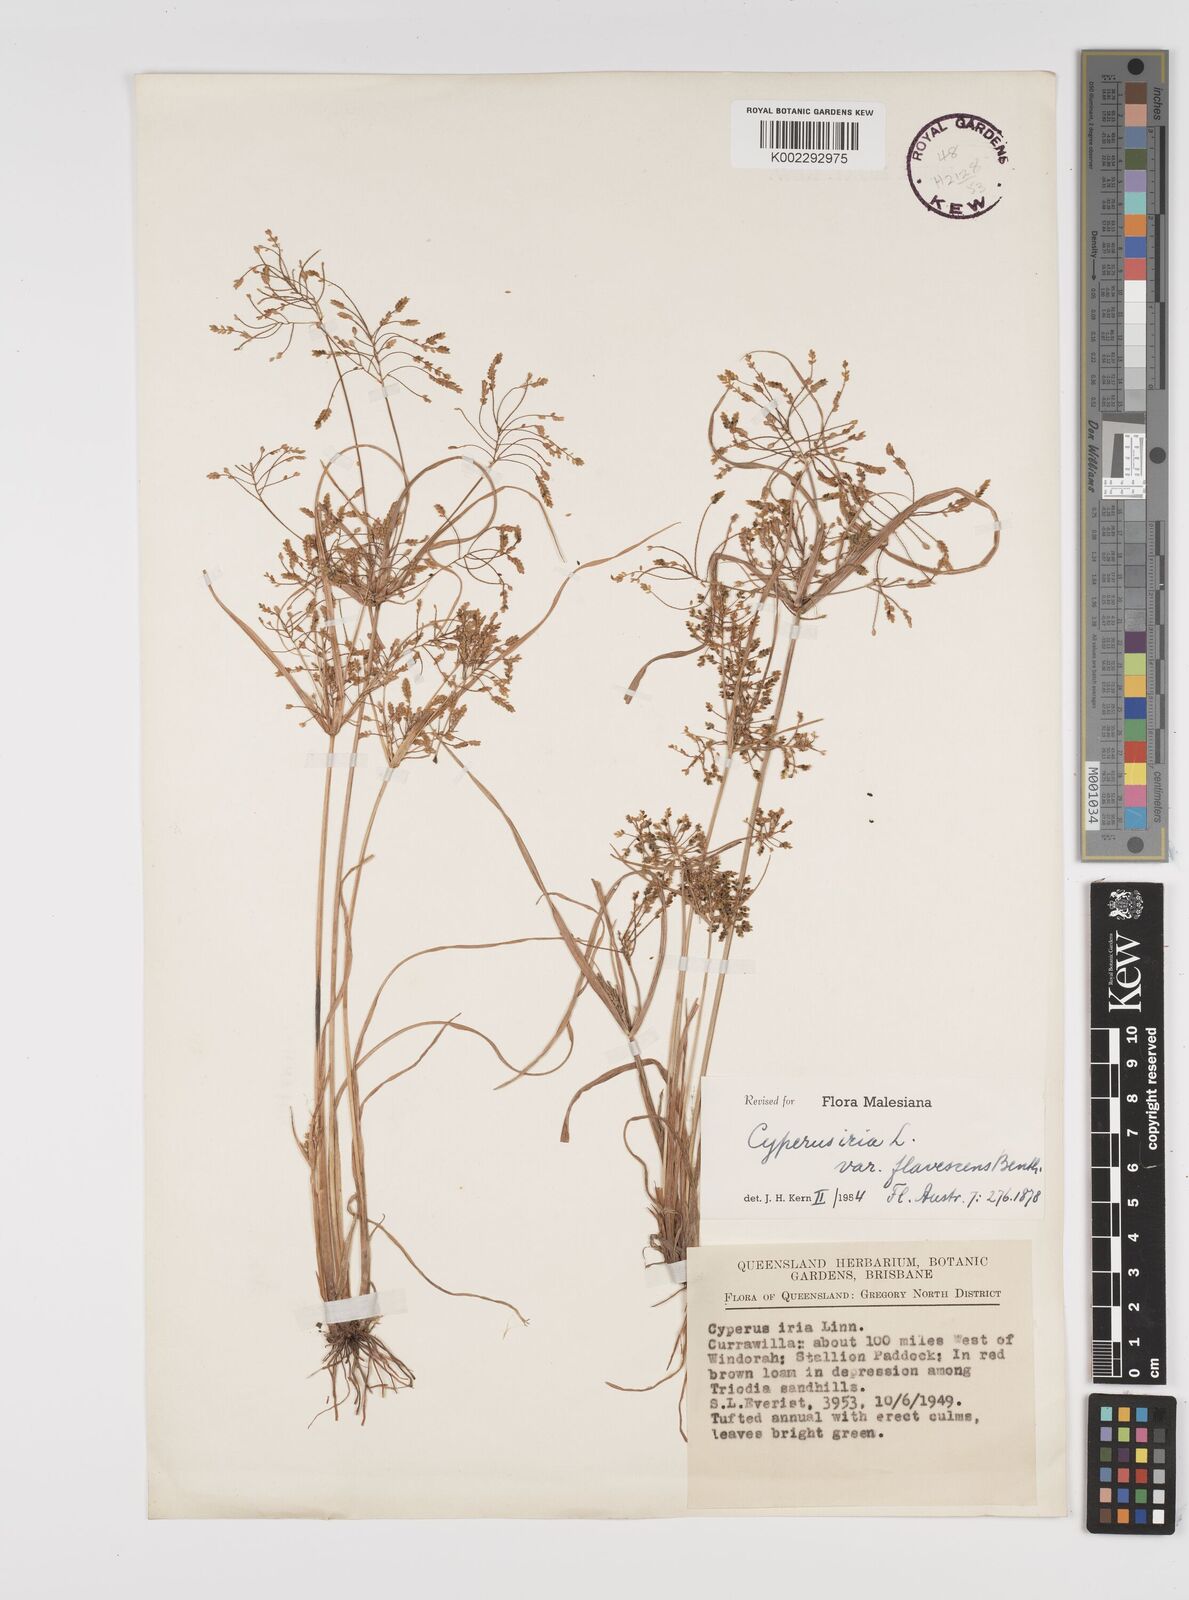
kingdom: Plantae
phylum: Tracheophyta
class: Liliopsida
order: Poales
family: Cyperaceae
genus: Cyperus
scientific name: Cyperus iria
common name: Ricefield flatsedge
